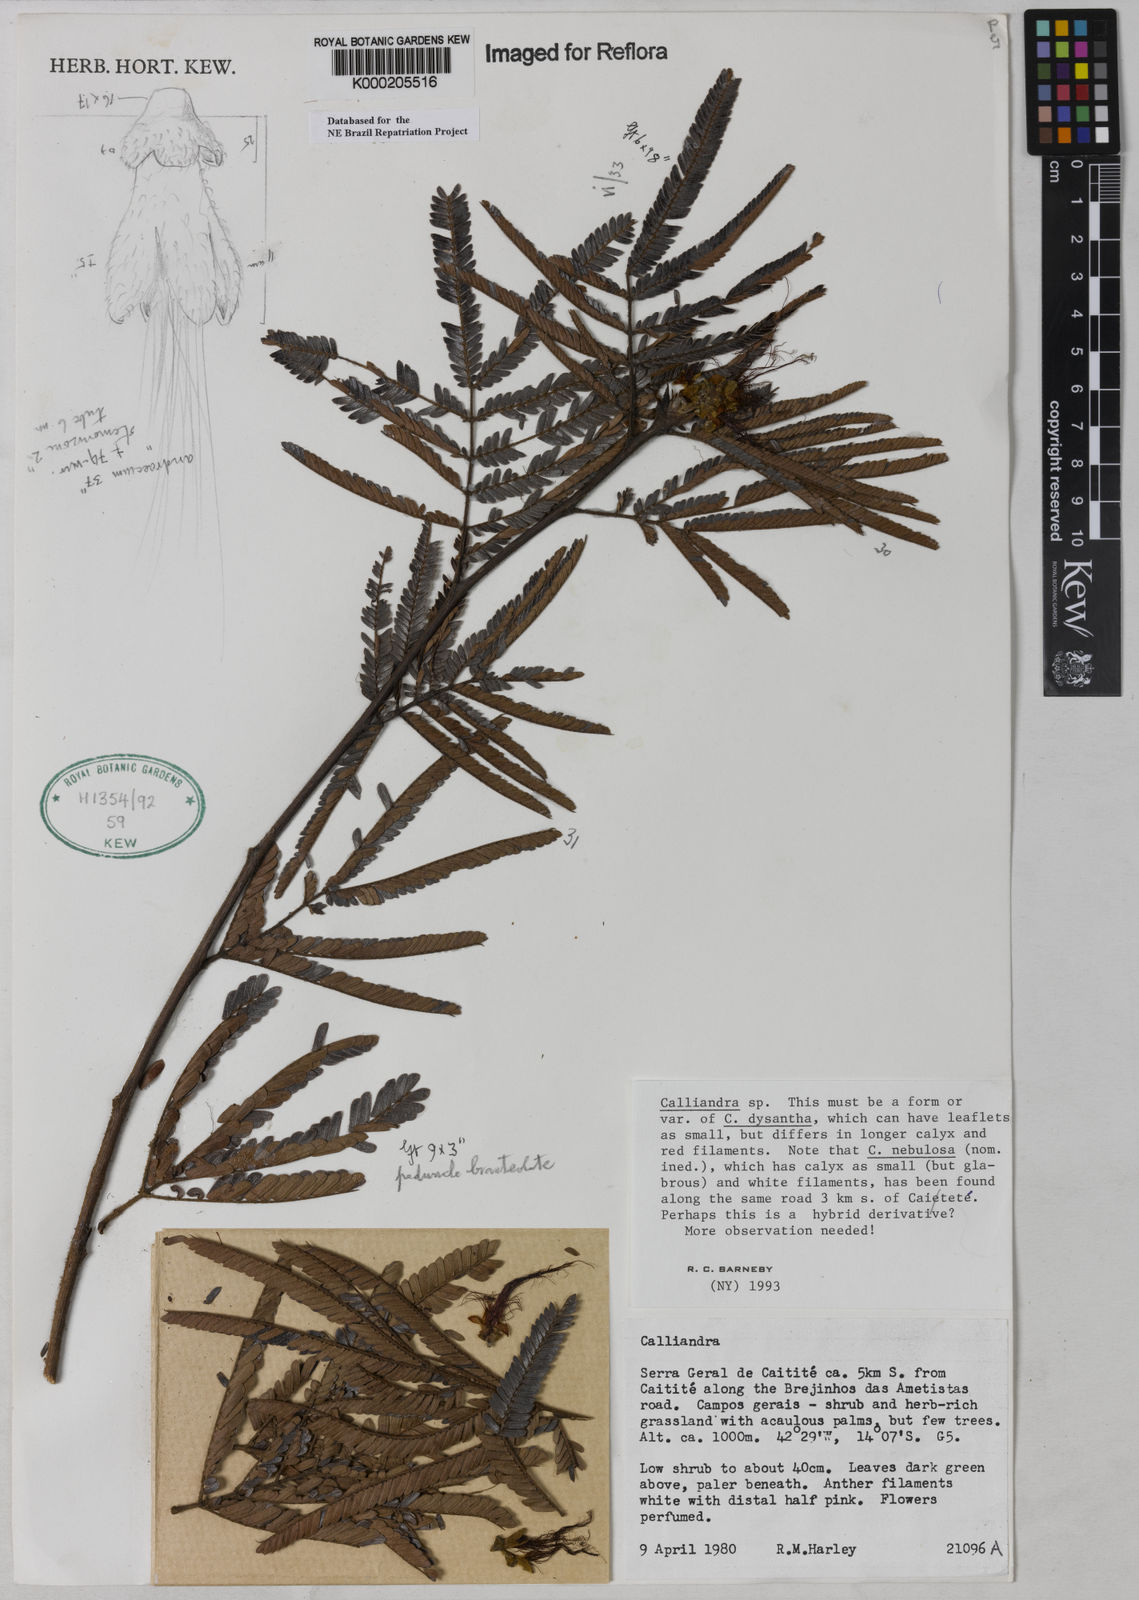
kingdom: Plantae
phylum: Tracheophyta
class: Magnoliopsida
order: Fabales
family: Fabaceae
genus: Calliandra
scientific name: Calliandra
